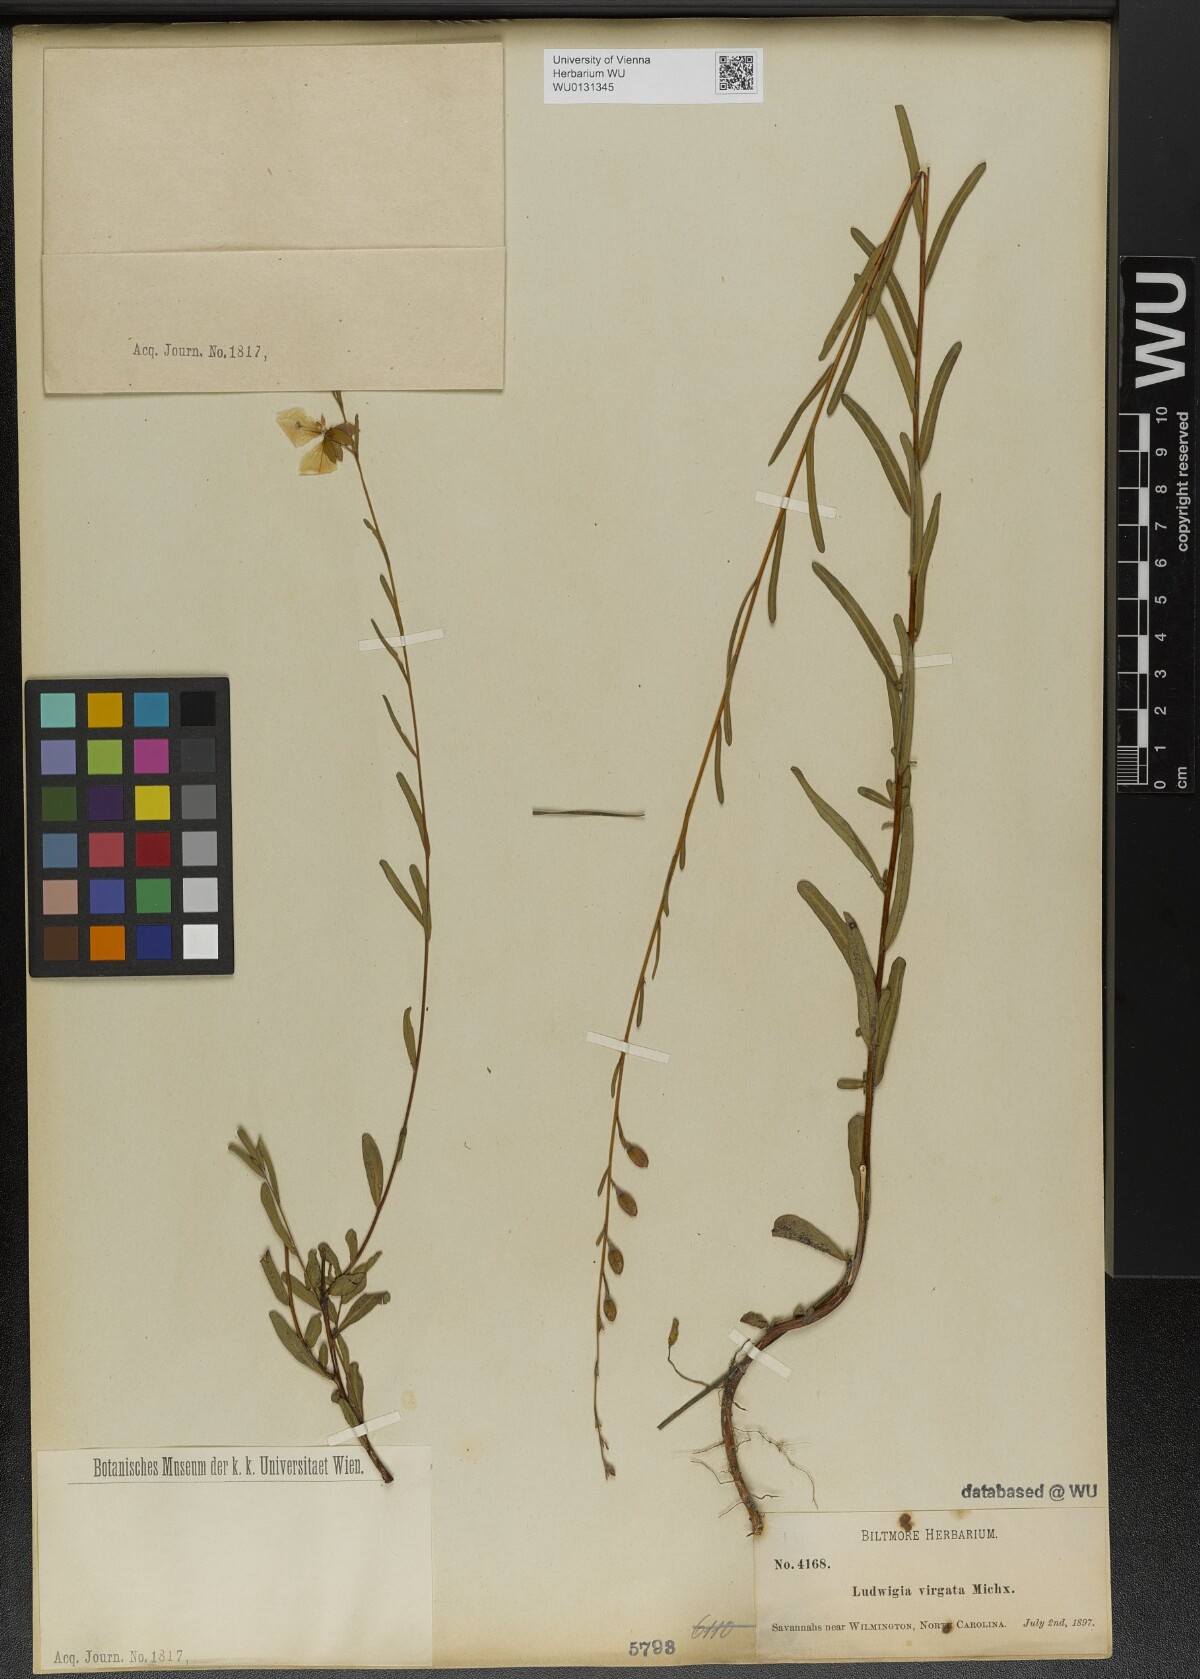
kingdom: Plantae
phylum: Tracheophyta
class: Magnoliopsida
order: Myrtales
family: Onagraceae
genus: Ludwigia
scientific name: Ludwigia virgata
